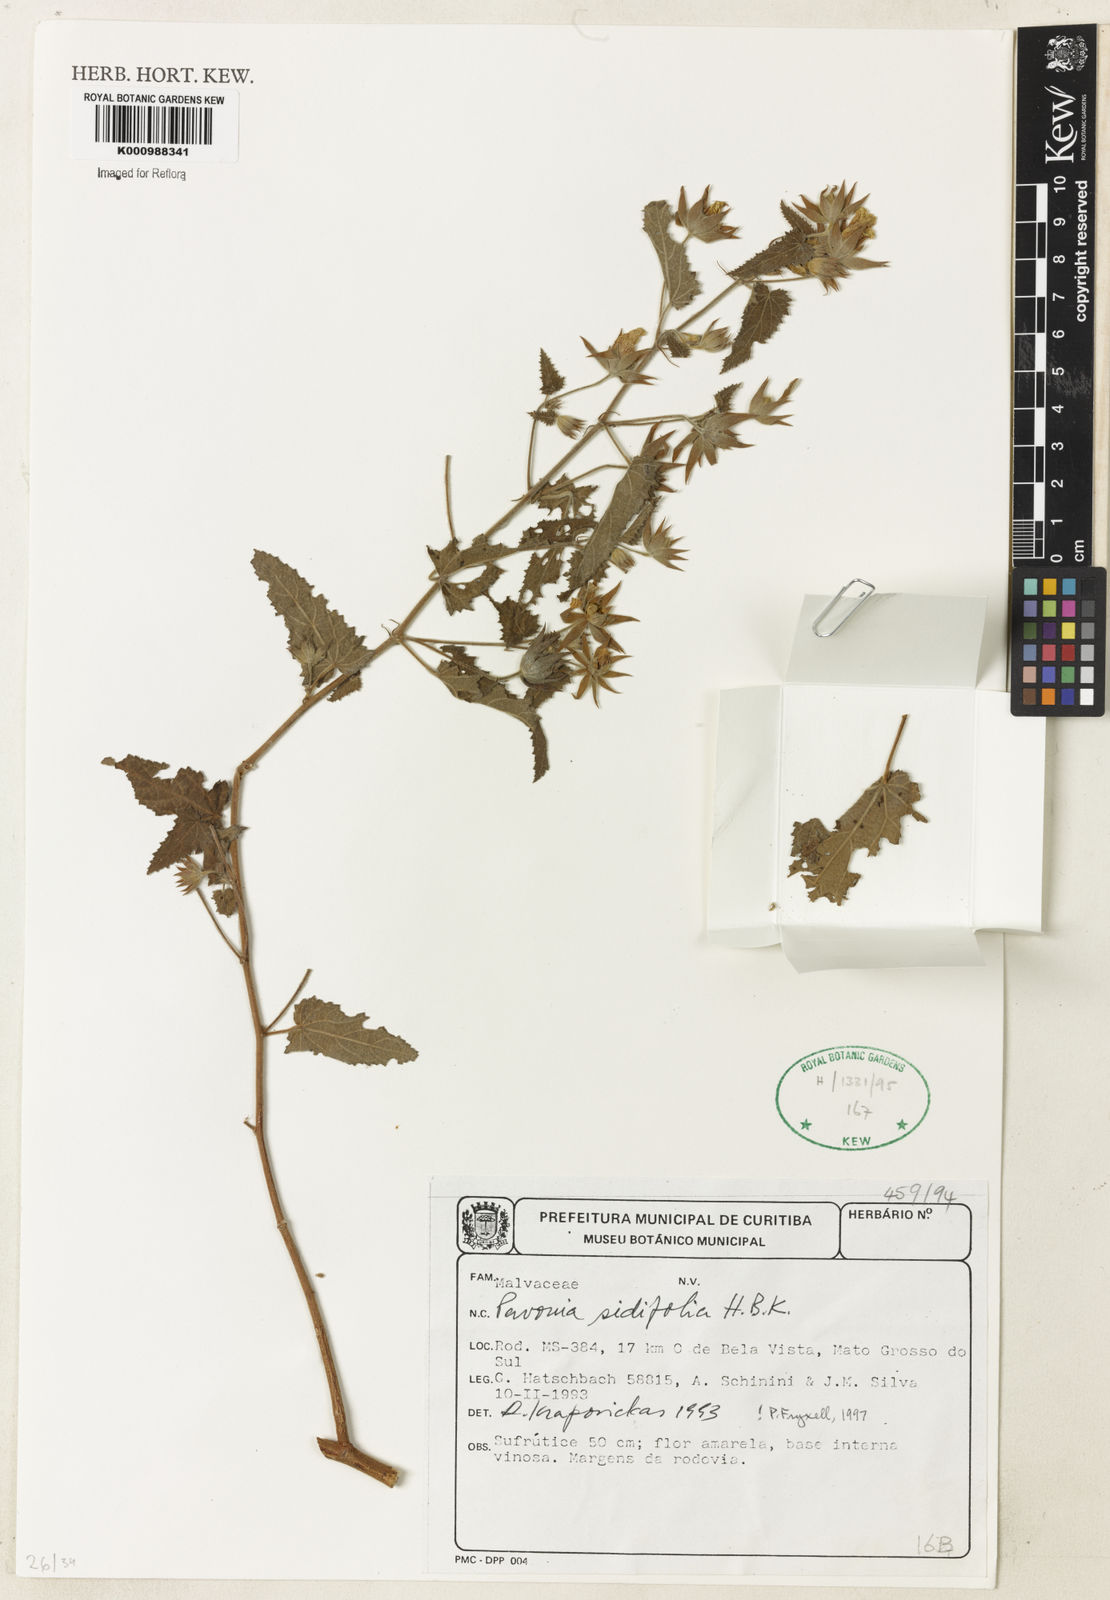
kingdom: Plantae
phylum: Tracheophyta
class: Magnoliopsida
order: Malvales
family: Malvaceae
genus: Pavonia
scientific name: Pavonia sidifolia
